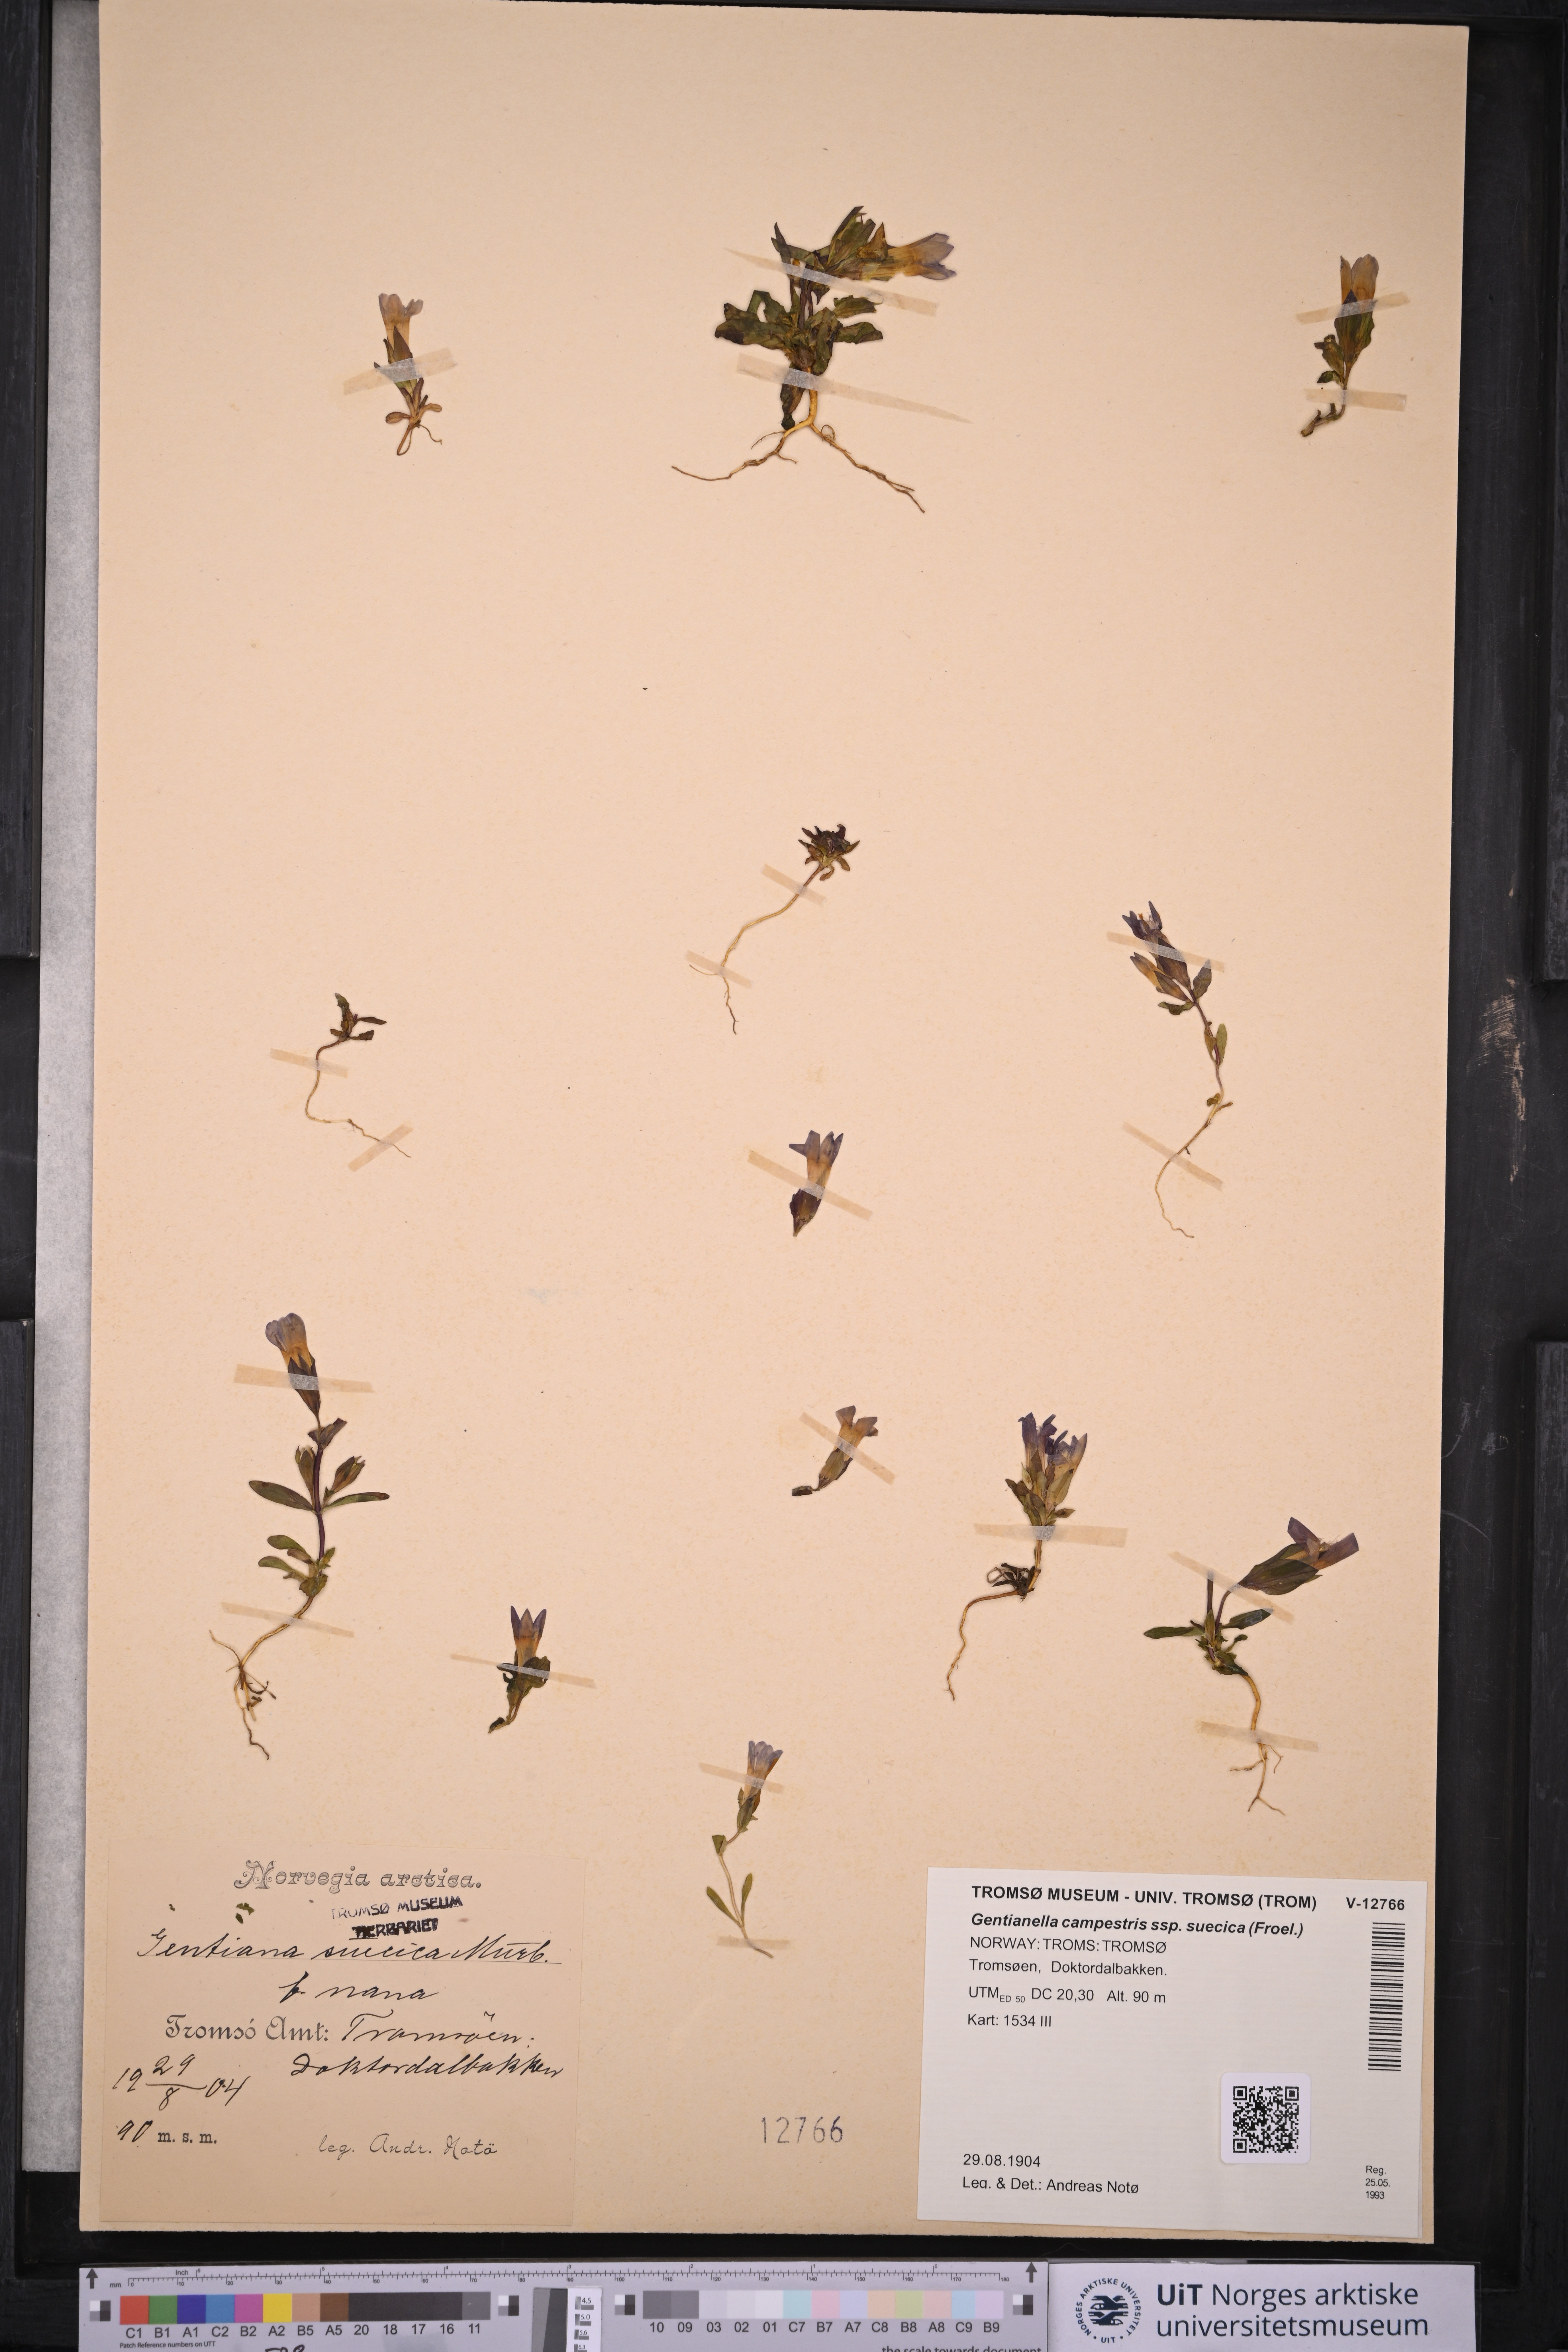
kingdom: Plantae
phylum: Tracheophyta
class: Magnoliopsida
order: Gentianales
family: Gentianaceae
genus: Gentianella
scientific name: Gentianella campestris
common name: Field gentian
